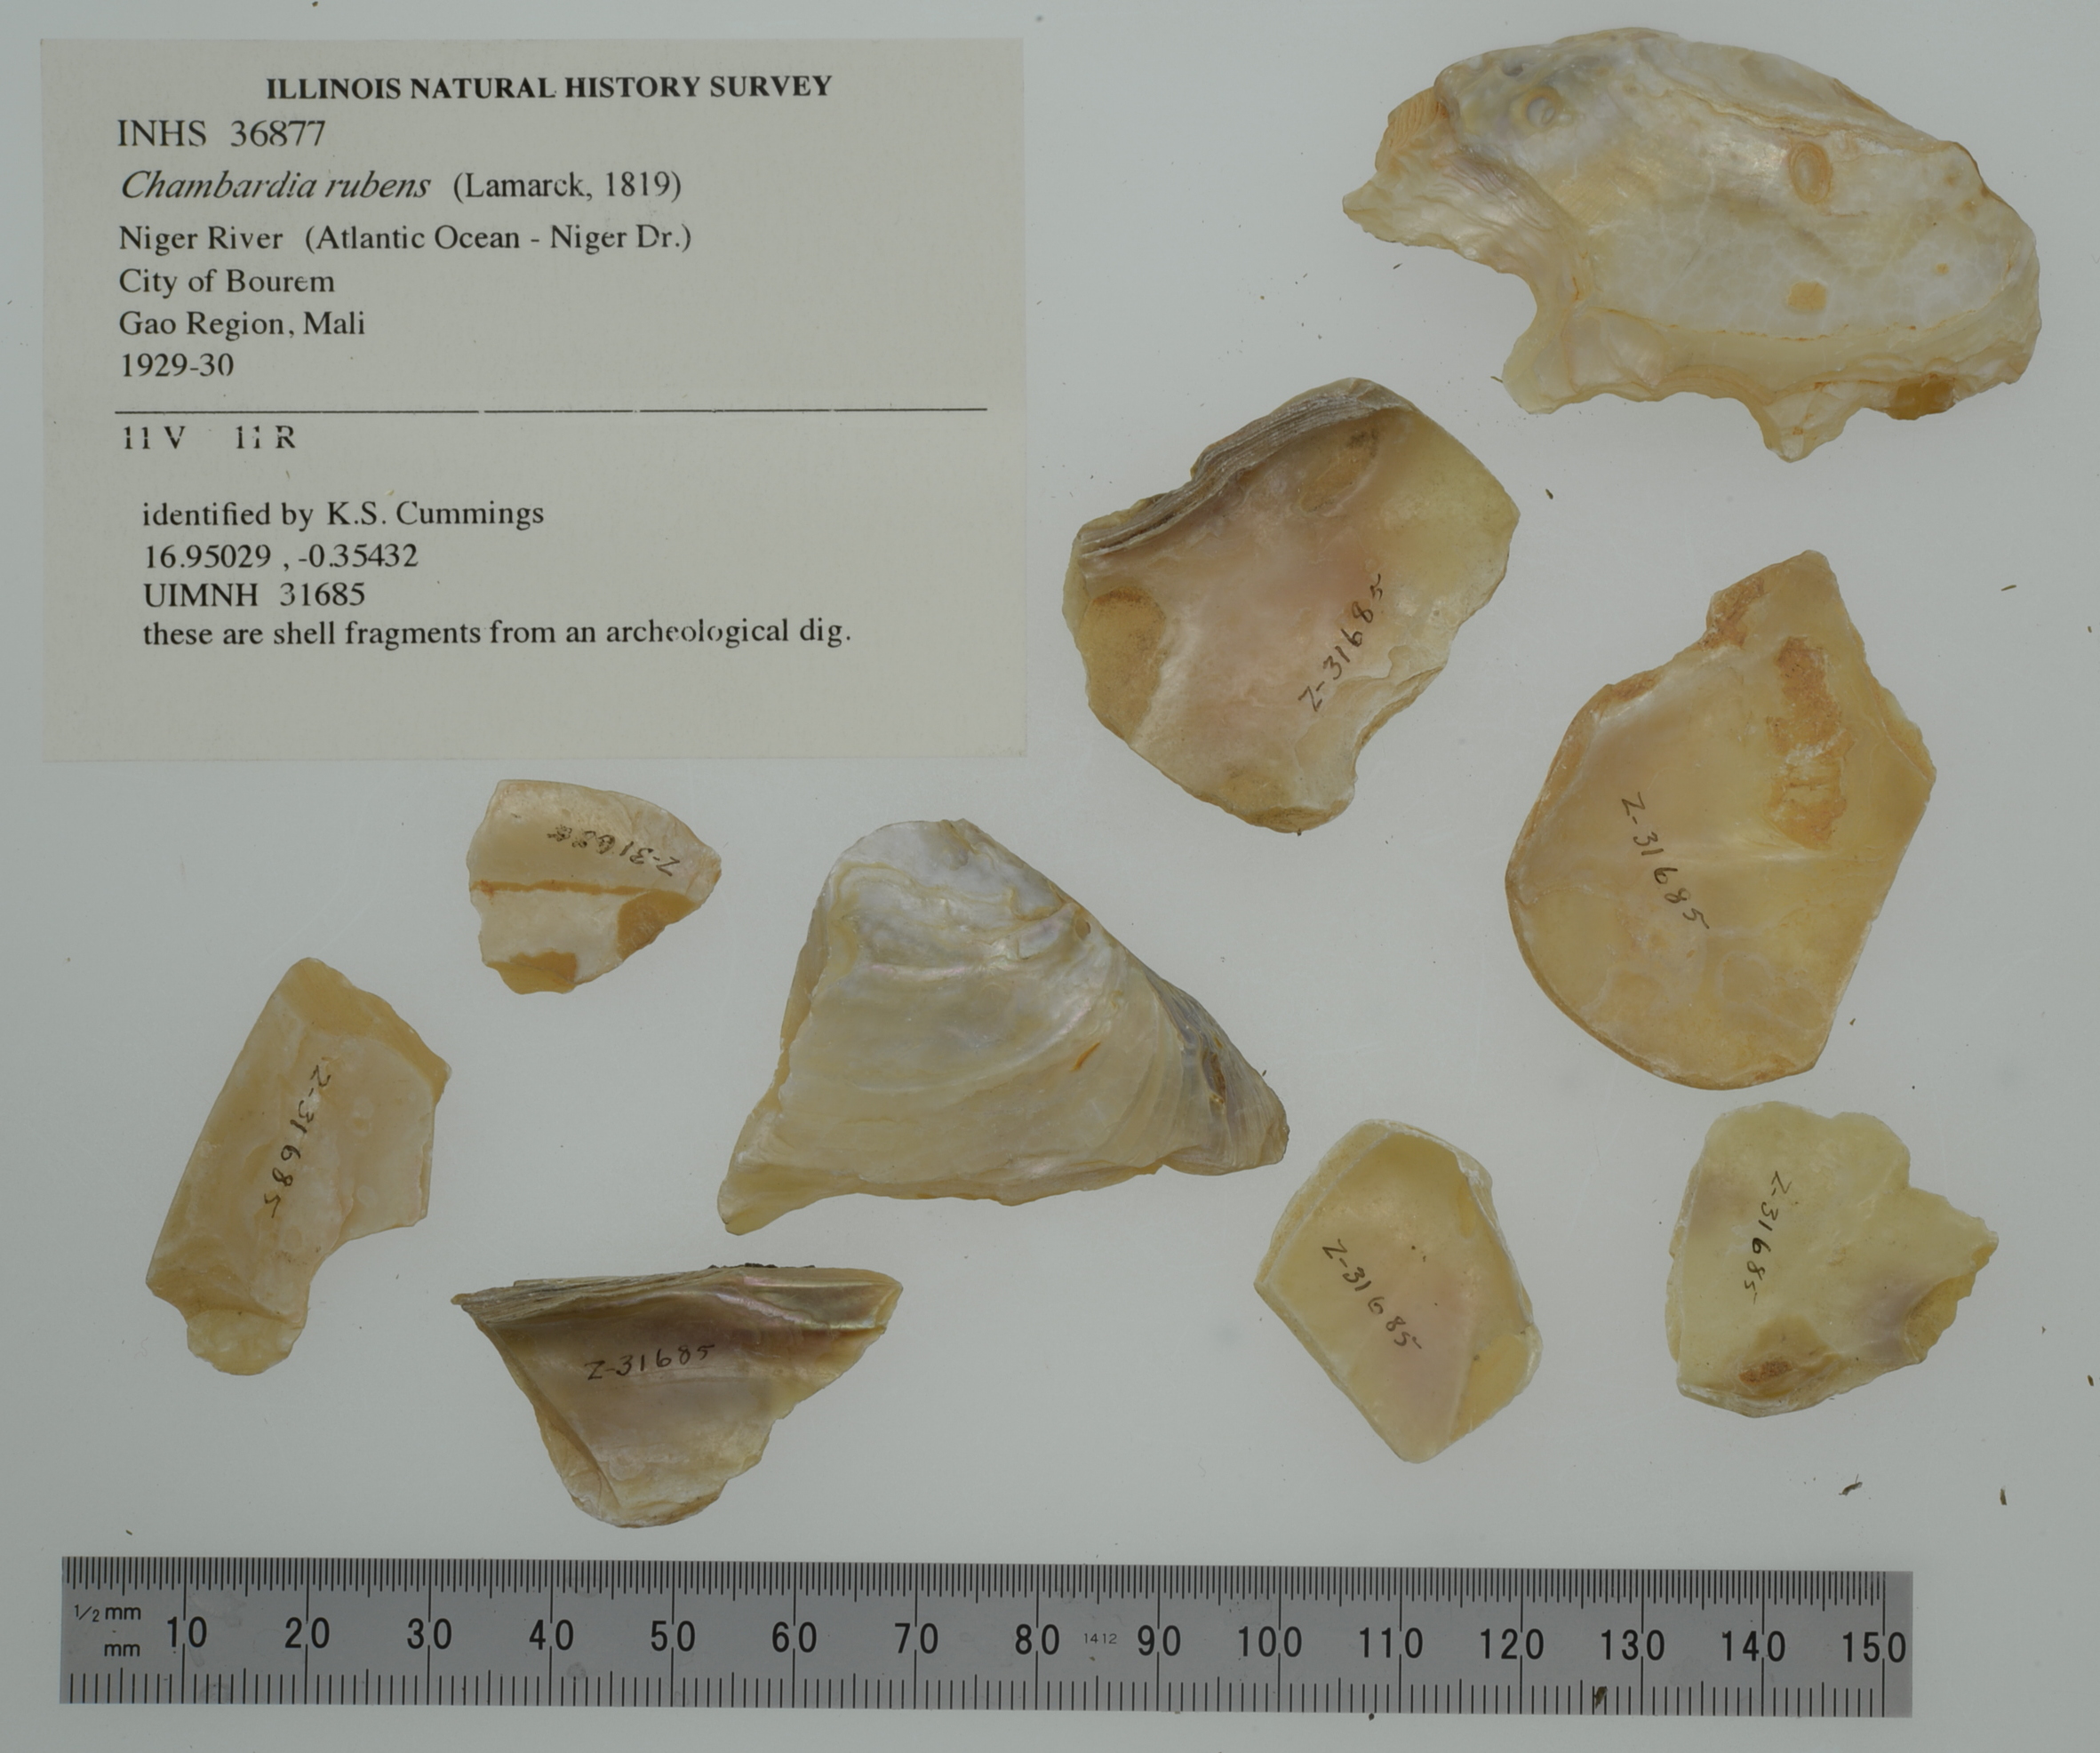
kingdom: Animalia
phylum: Mollusca
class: Bivalvia
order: Unionida
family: Iridinidae
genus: Chambardia
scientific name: Chambardia rubens
